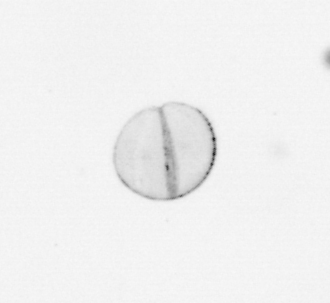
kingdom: Chromista
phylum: Ochrophyta
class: Bacillariophyceae
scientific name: Bacillariophyceae
